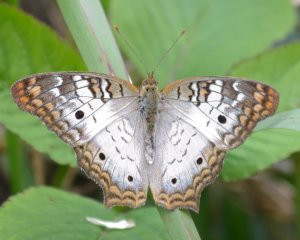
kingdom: Animalia
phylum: Arthropoda
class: Insecta
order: Lepidoptera
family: Nymphalidae
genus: Anartia
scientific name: Anartia jatrophae
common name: White Peacock
